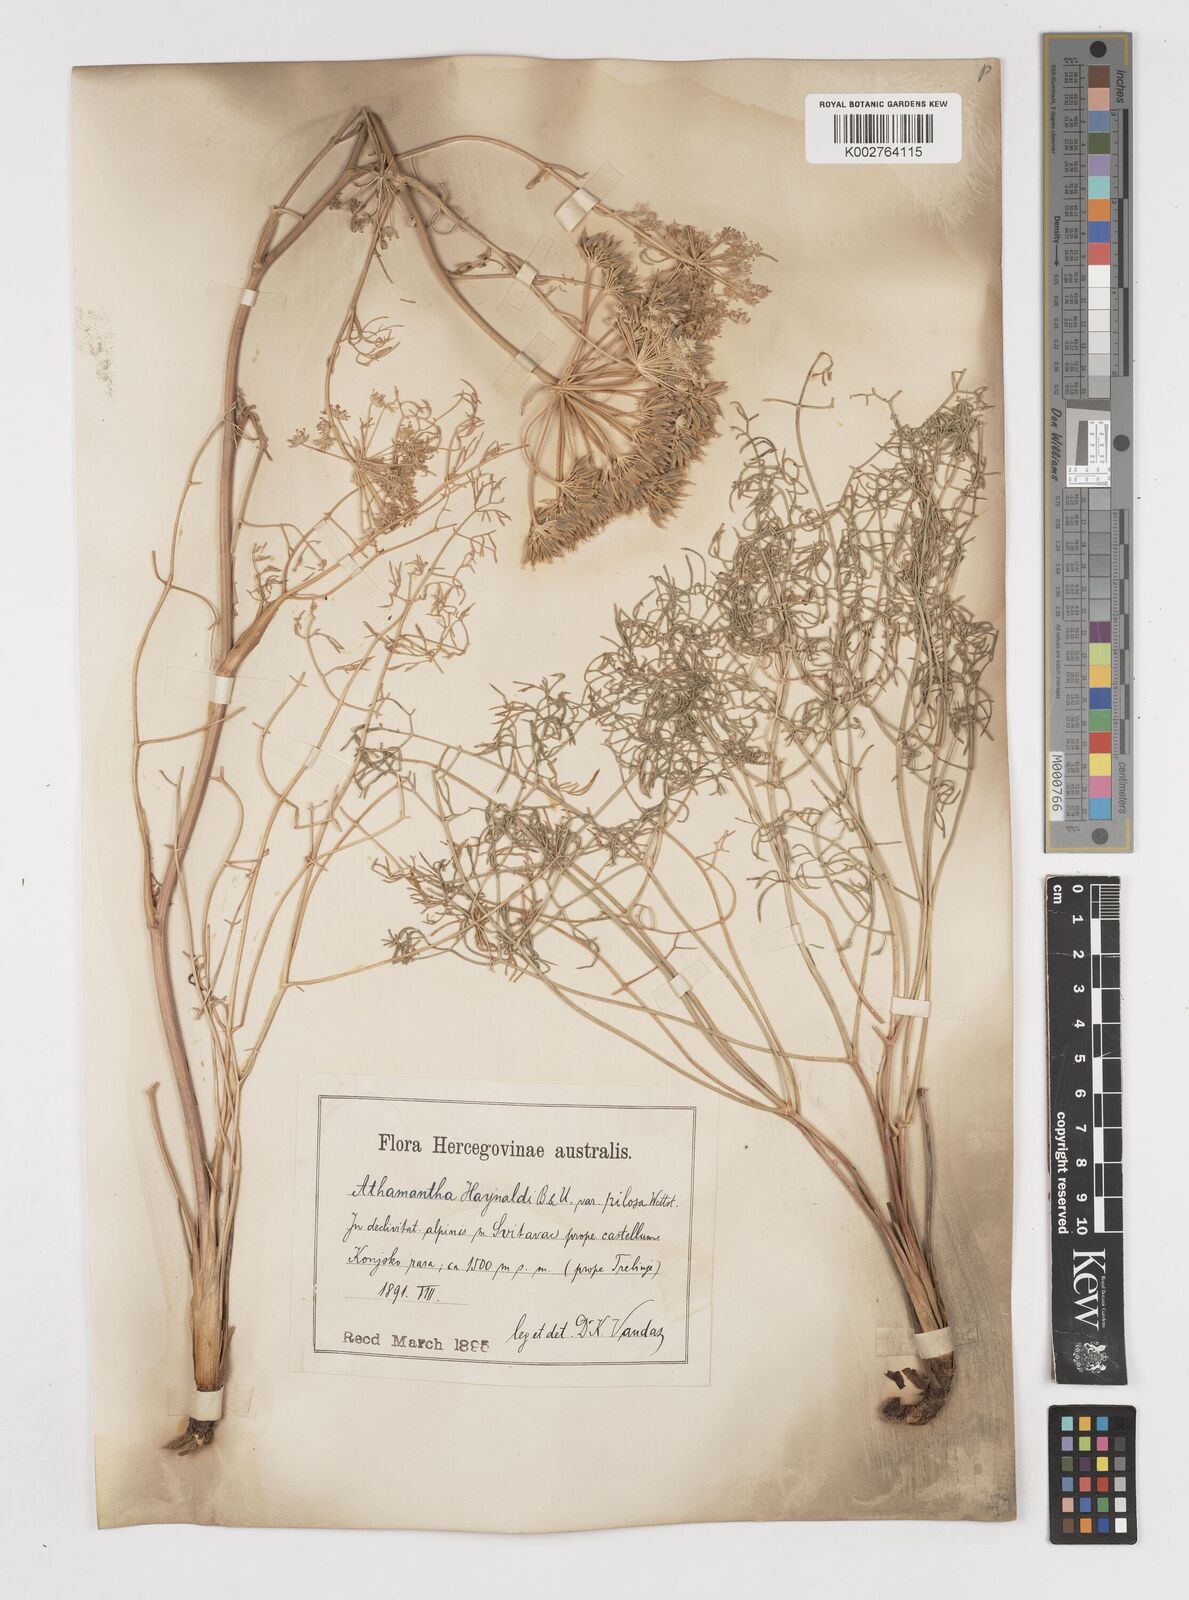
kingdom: Plantae
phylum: Tracheophyta
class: Magnoliopsida
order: Apiales
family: Apiaceae
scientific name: Apiaceae
